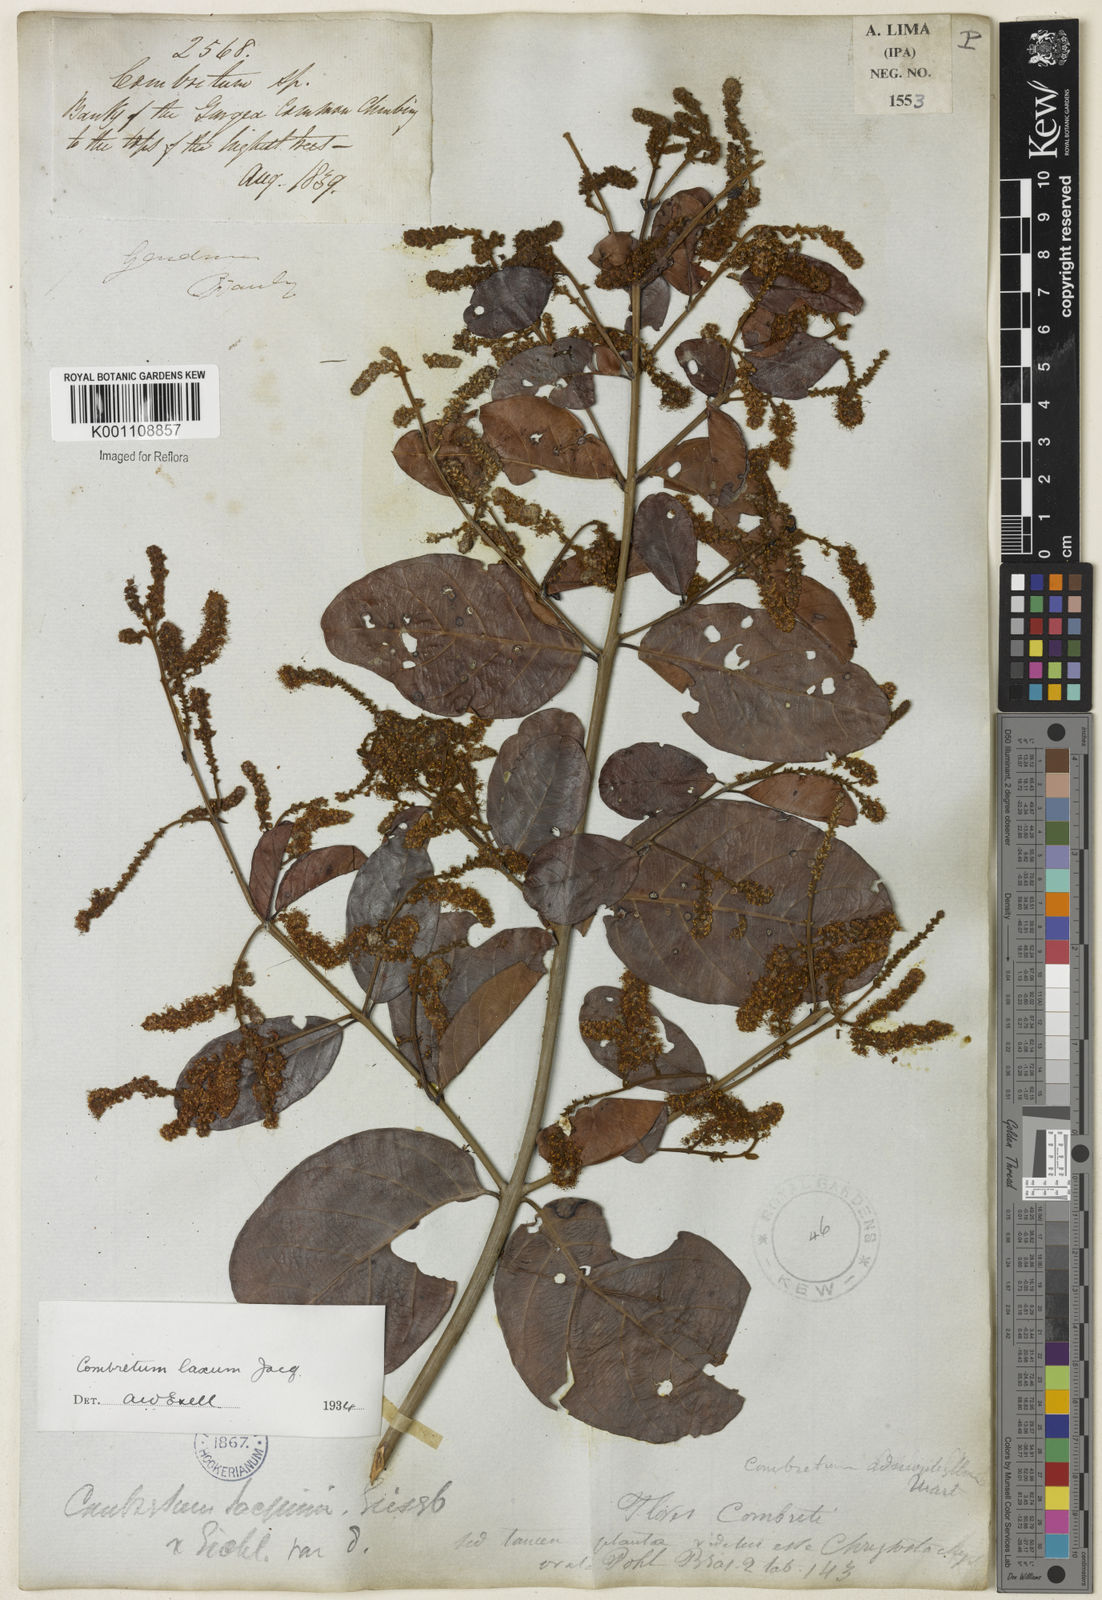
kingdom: Plantae
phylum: Tracheophyta
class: Magnoliopsida
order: Myrtales
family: Combretaceae
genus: Combretum
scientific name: Combretum laxum
